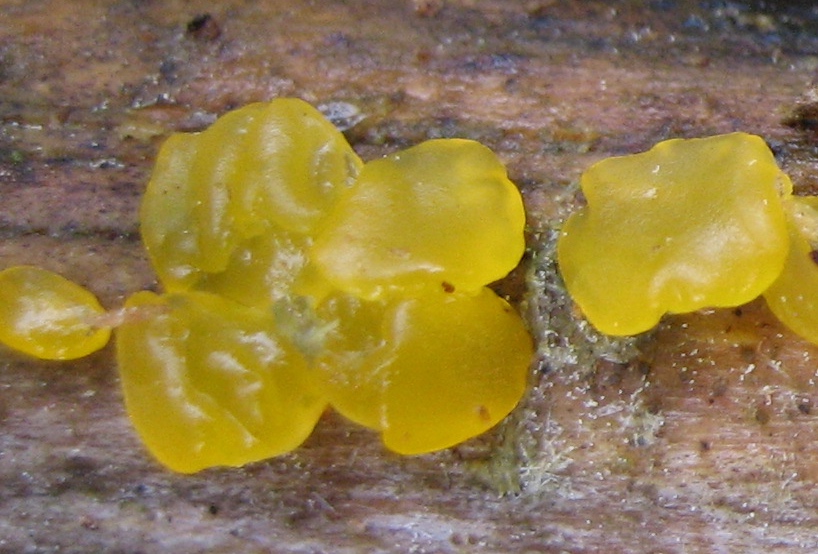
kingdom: Fungi
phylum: Basidiomycota
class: Dacrymycetes
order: Dacrymycetales
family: Dacrymycetaceae
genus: Dacrymyces
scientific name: Dacrymyces
